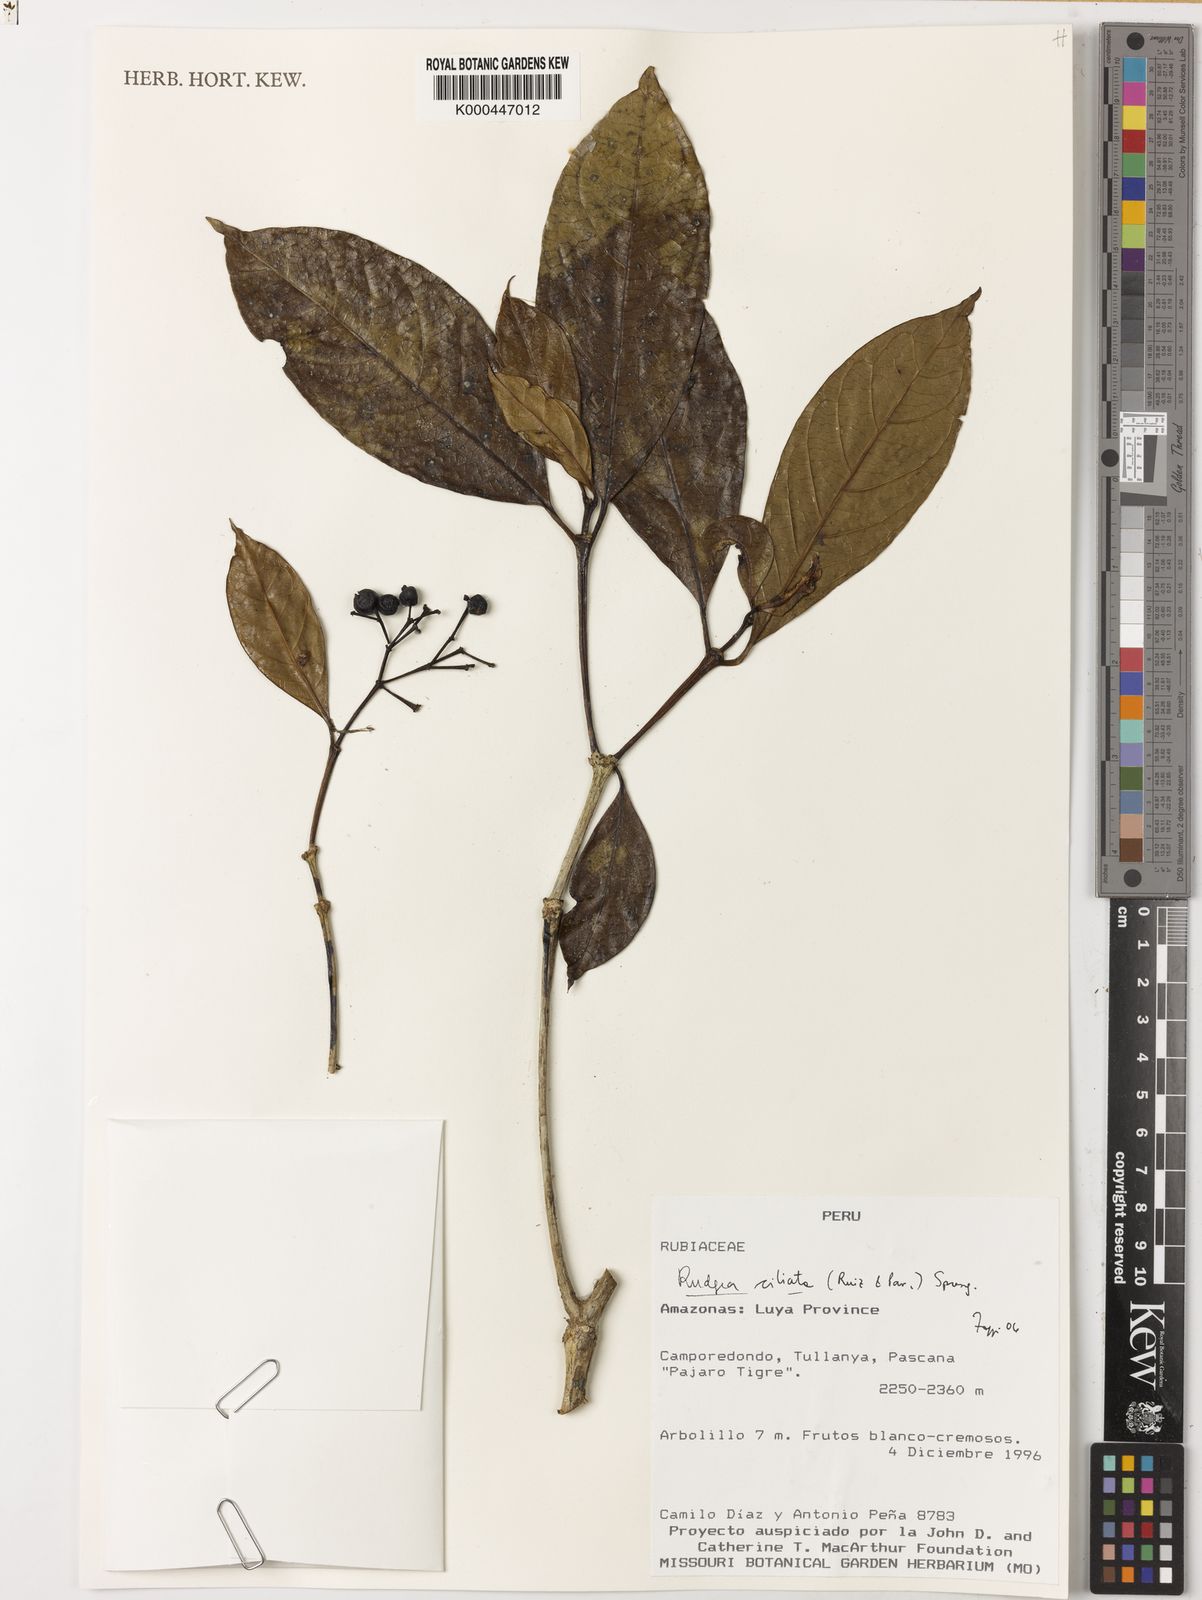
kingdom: Plantae
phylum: Tracheophyta
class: Magnoliopsida
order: Gentianales
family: Rubiaceae
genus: Rudgea
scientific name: Rudgea ciliata
